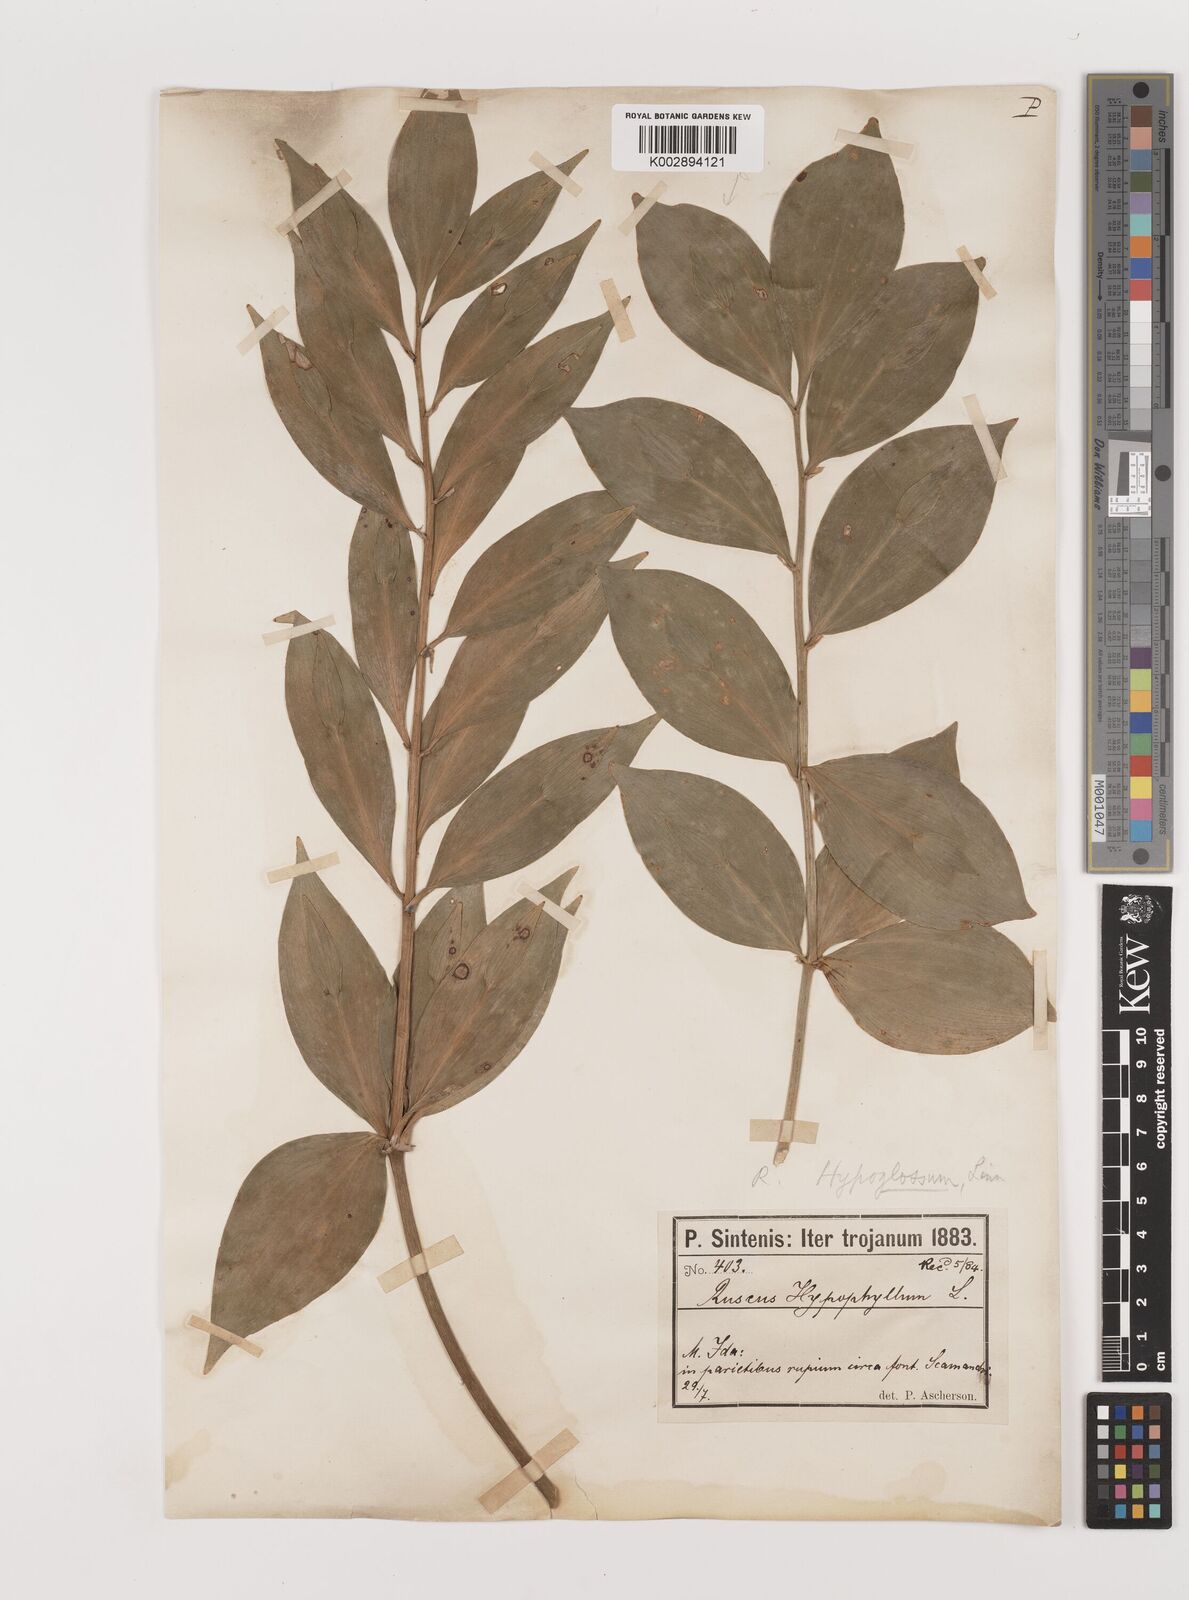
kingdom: Plantae
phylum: Tracheophyta
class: Liliopsida
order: Asparagales
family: Asparagaceae
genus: Ruscus
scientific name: Ruscus hypoglossum
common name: Spineless butcher's-broom
